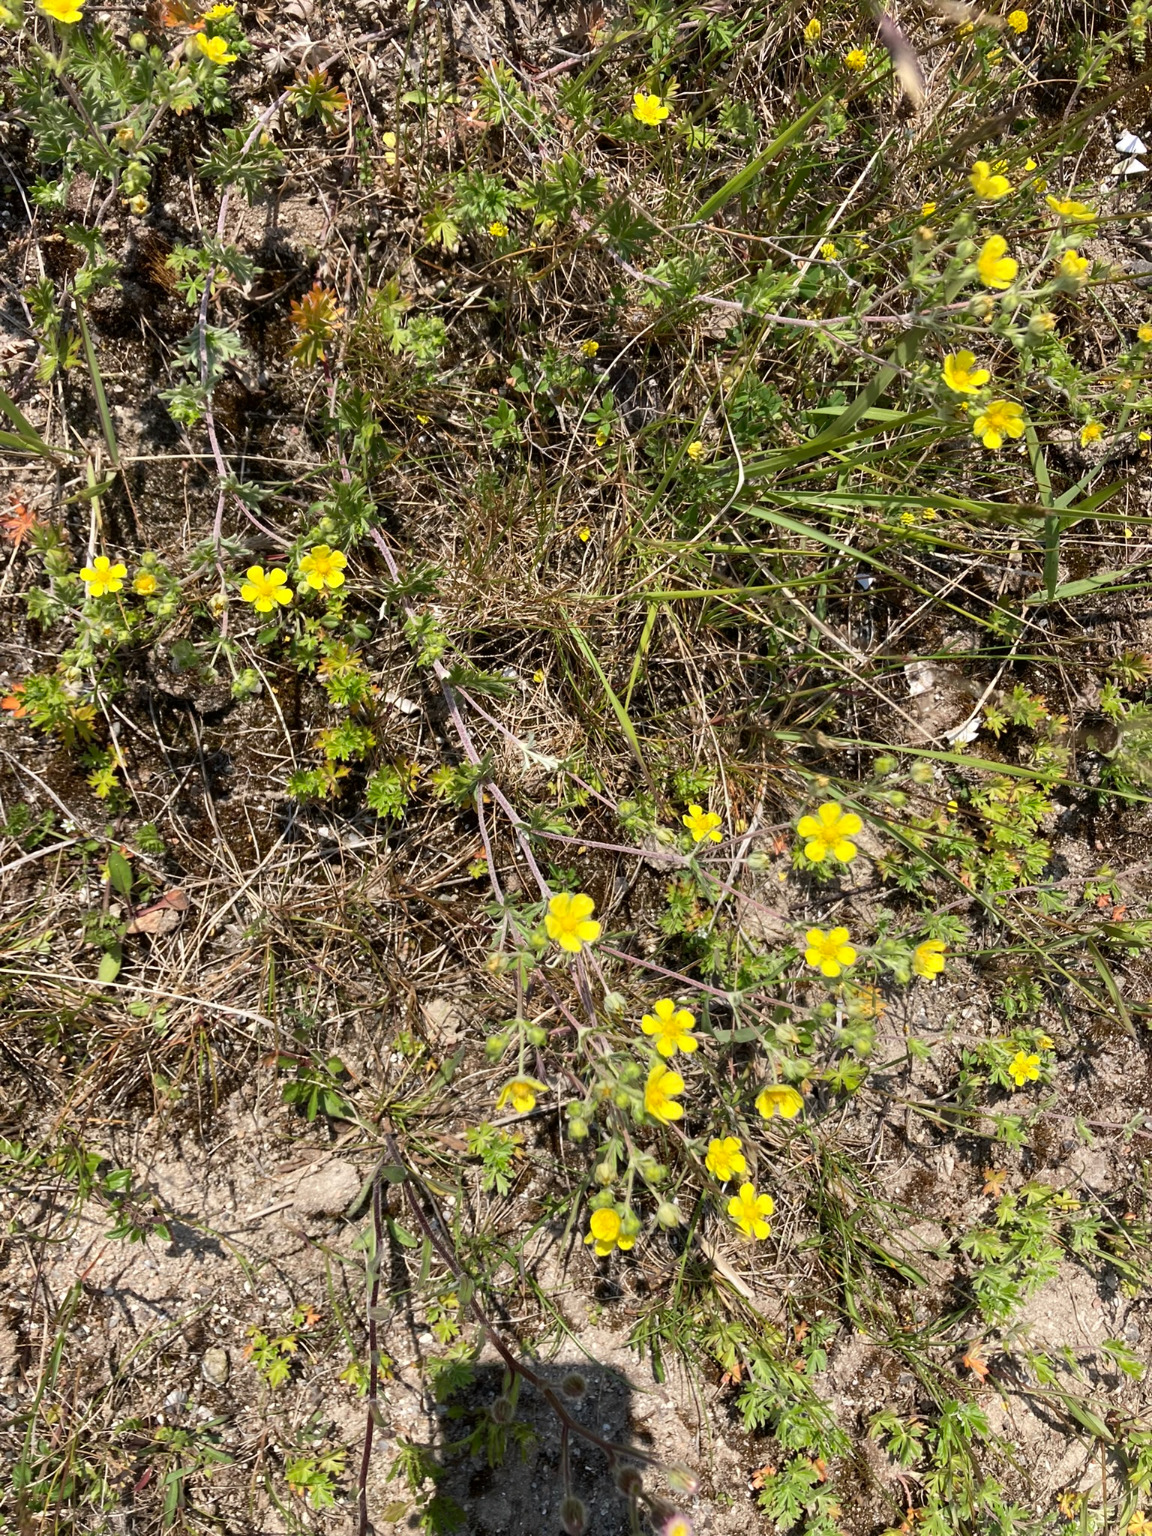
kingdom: Plantae
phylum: Tracheophyta
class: Magnoliopsida
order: Rosales
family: Rosaceae
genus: Potentilla
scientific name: Potentilla argentea
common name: Sølv-potentil
